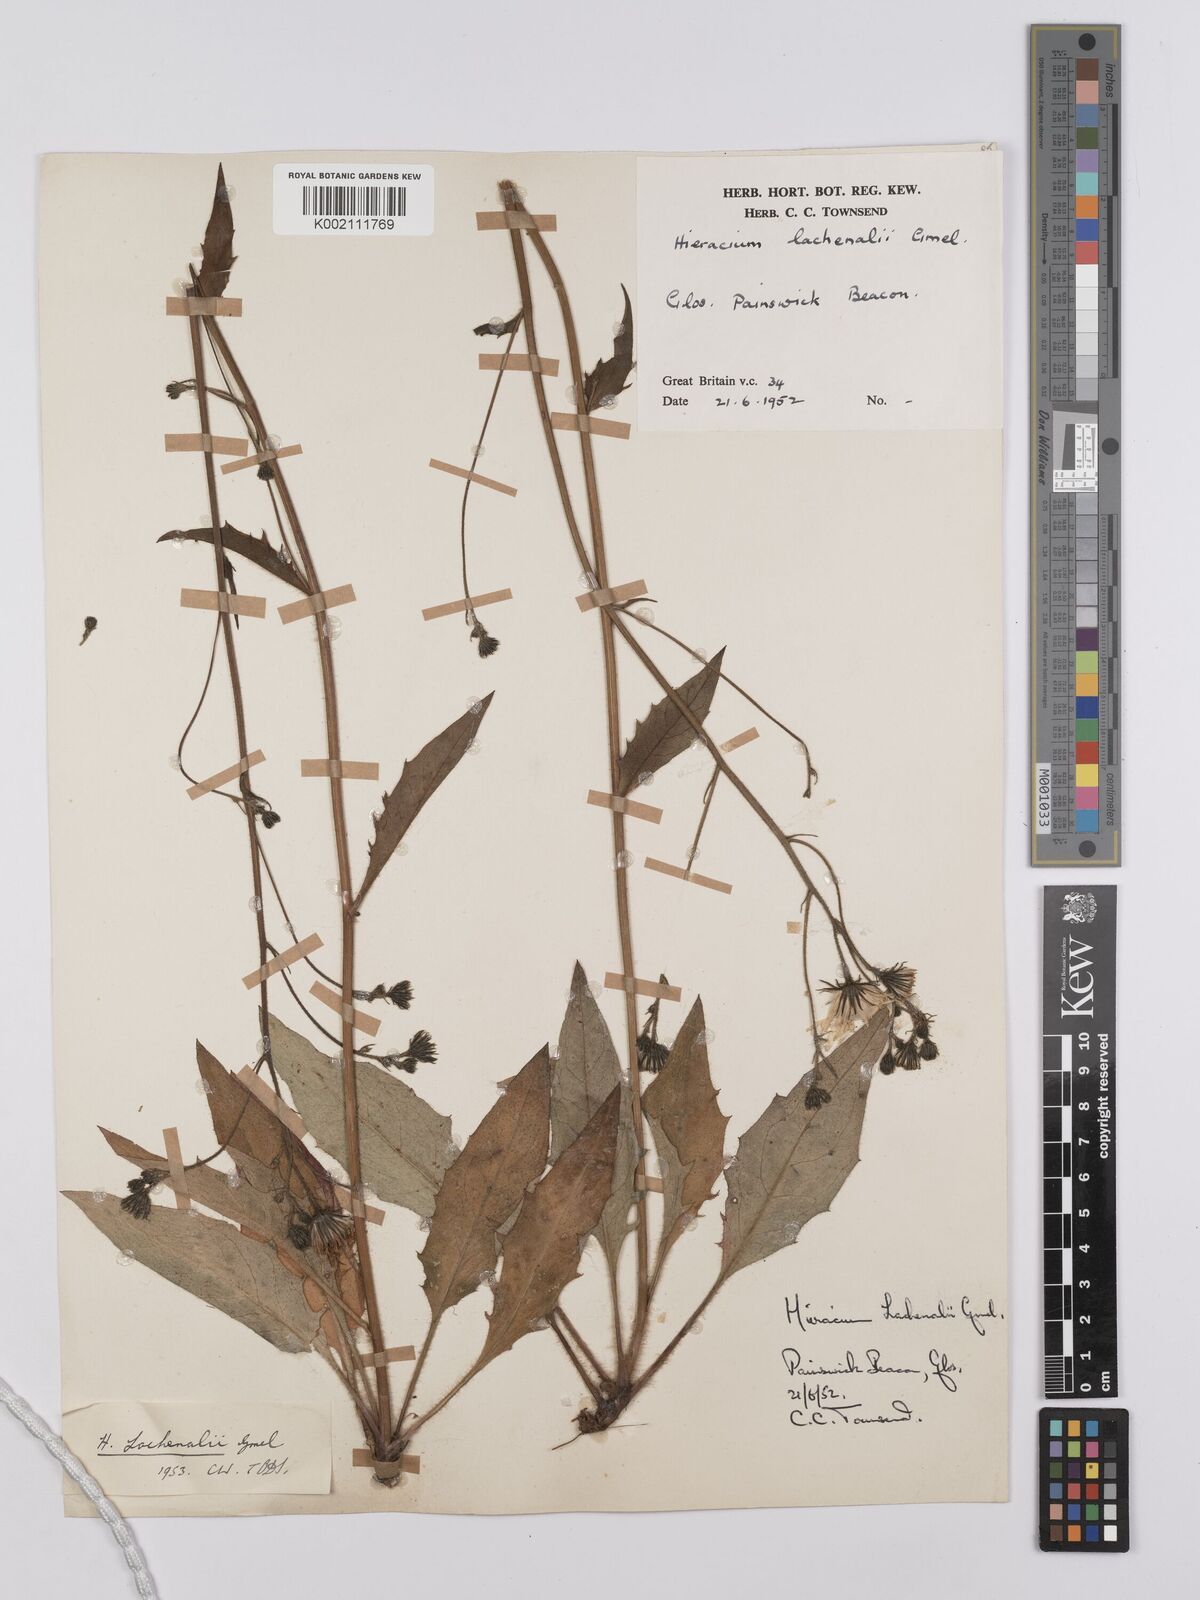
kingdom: Plantae
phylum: Tracheophyta
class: Magnoliopsida
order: Asterales
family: Asteraceae
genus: Hieracium
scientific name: Hieracium lachenalii
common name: Common hawkweed
